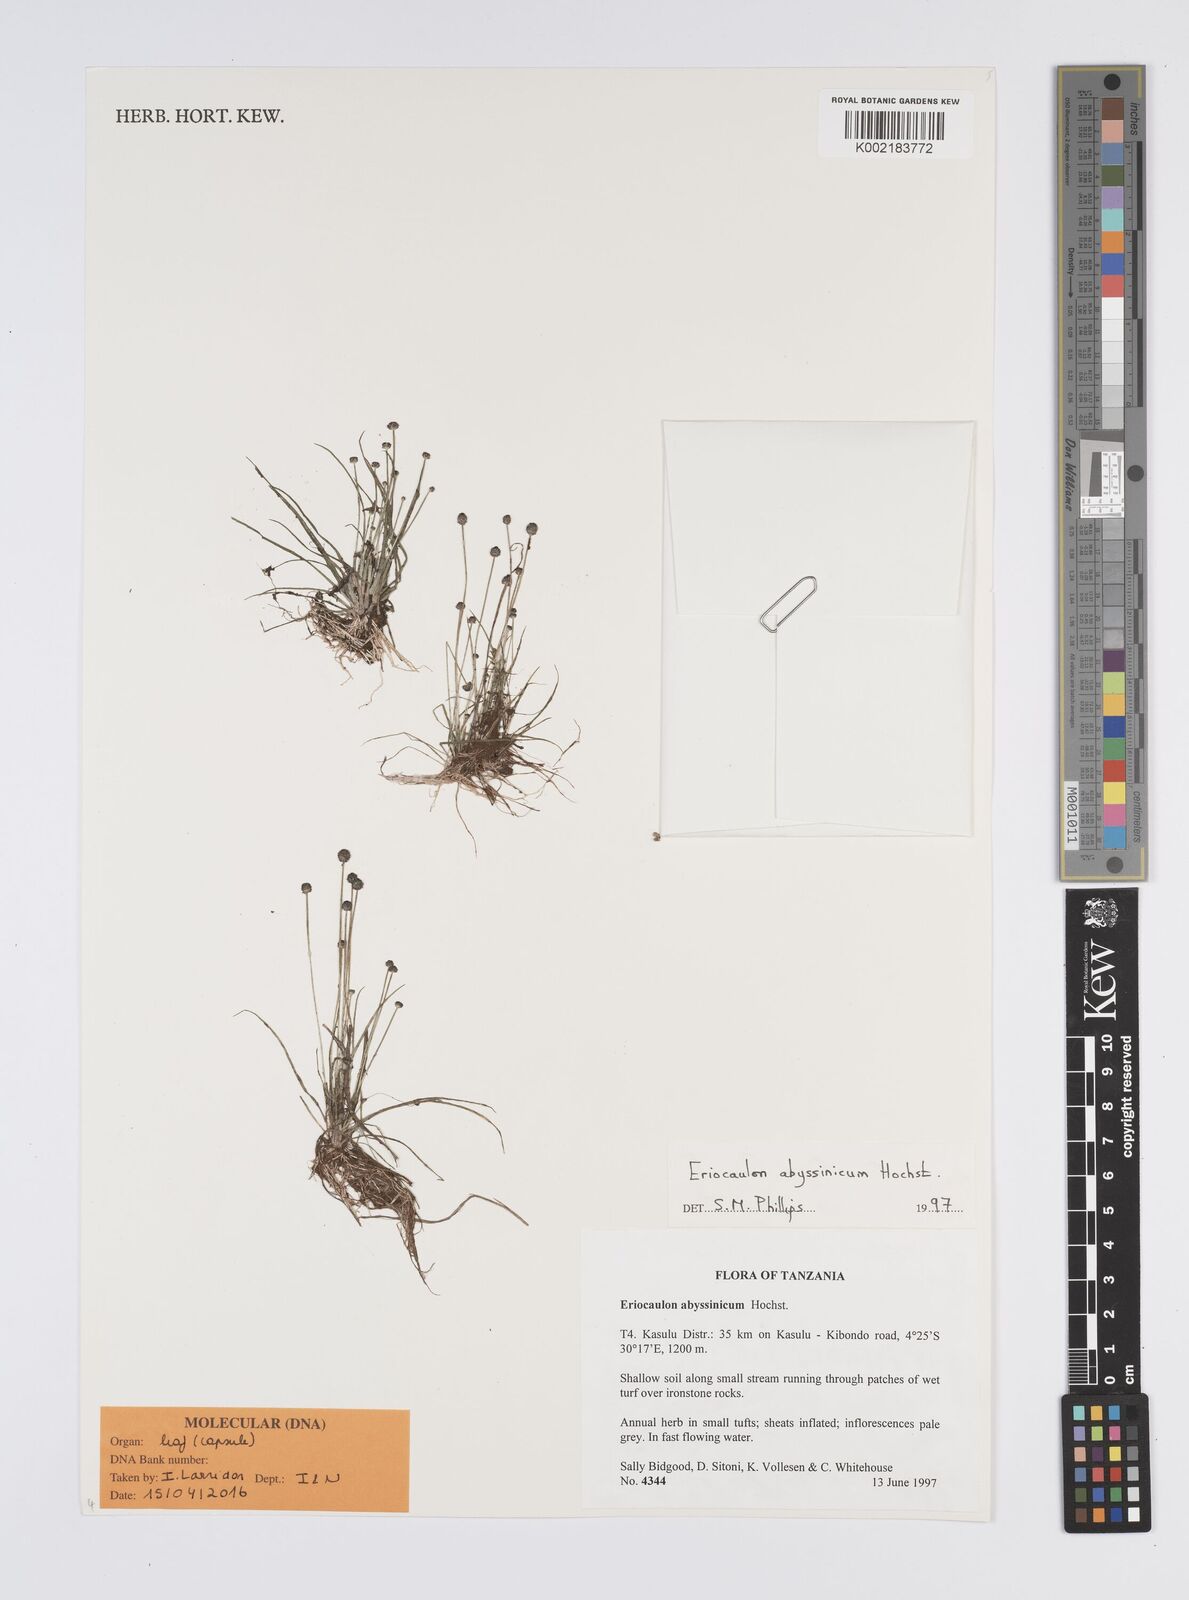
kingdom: Plantae
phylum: Tracheophyta
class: Liliopsida
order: Poales
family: Eriocaulaceae
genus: Eriocaulon
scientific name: Eriocaulon abyssinicum
